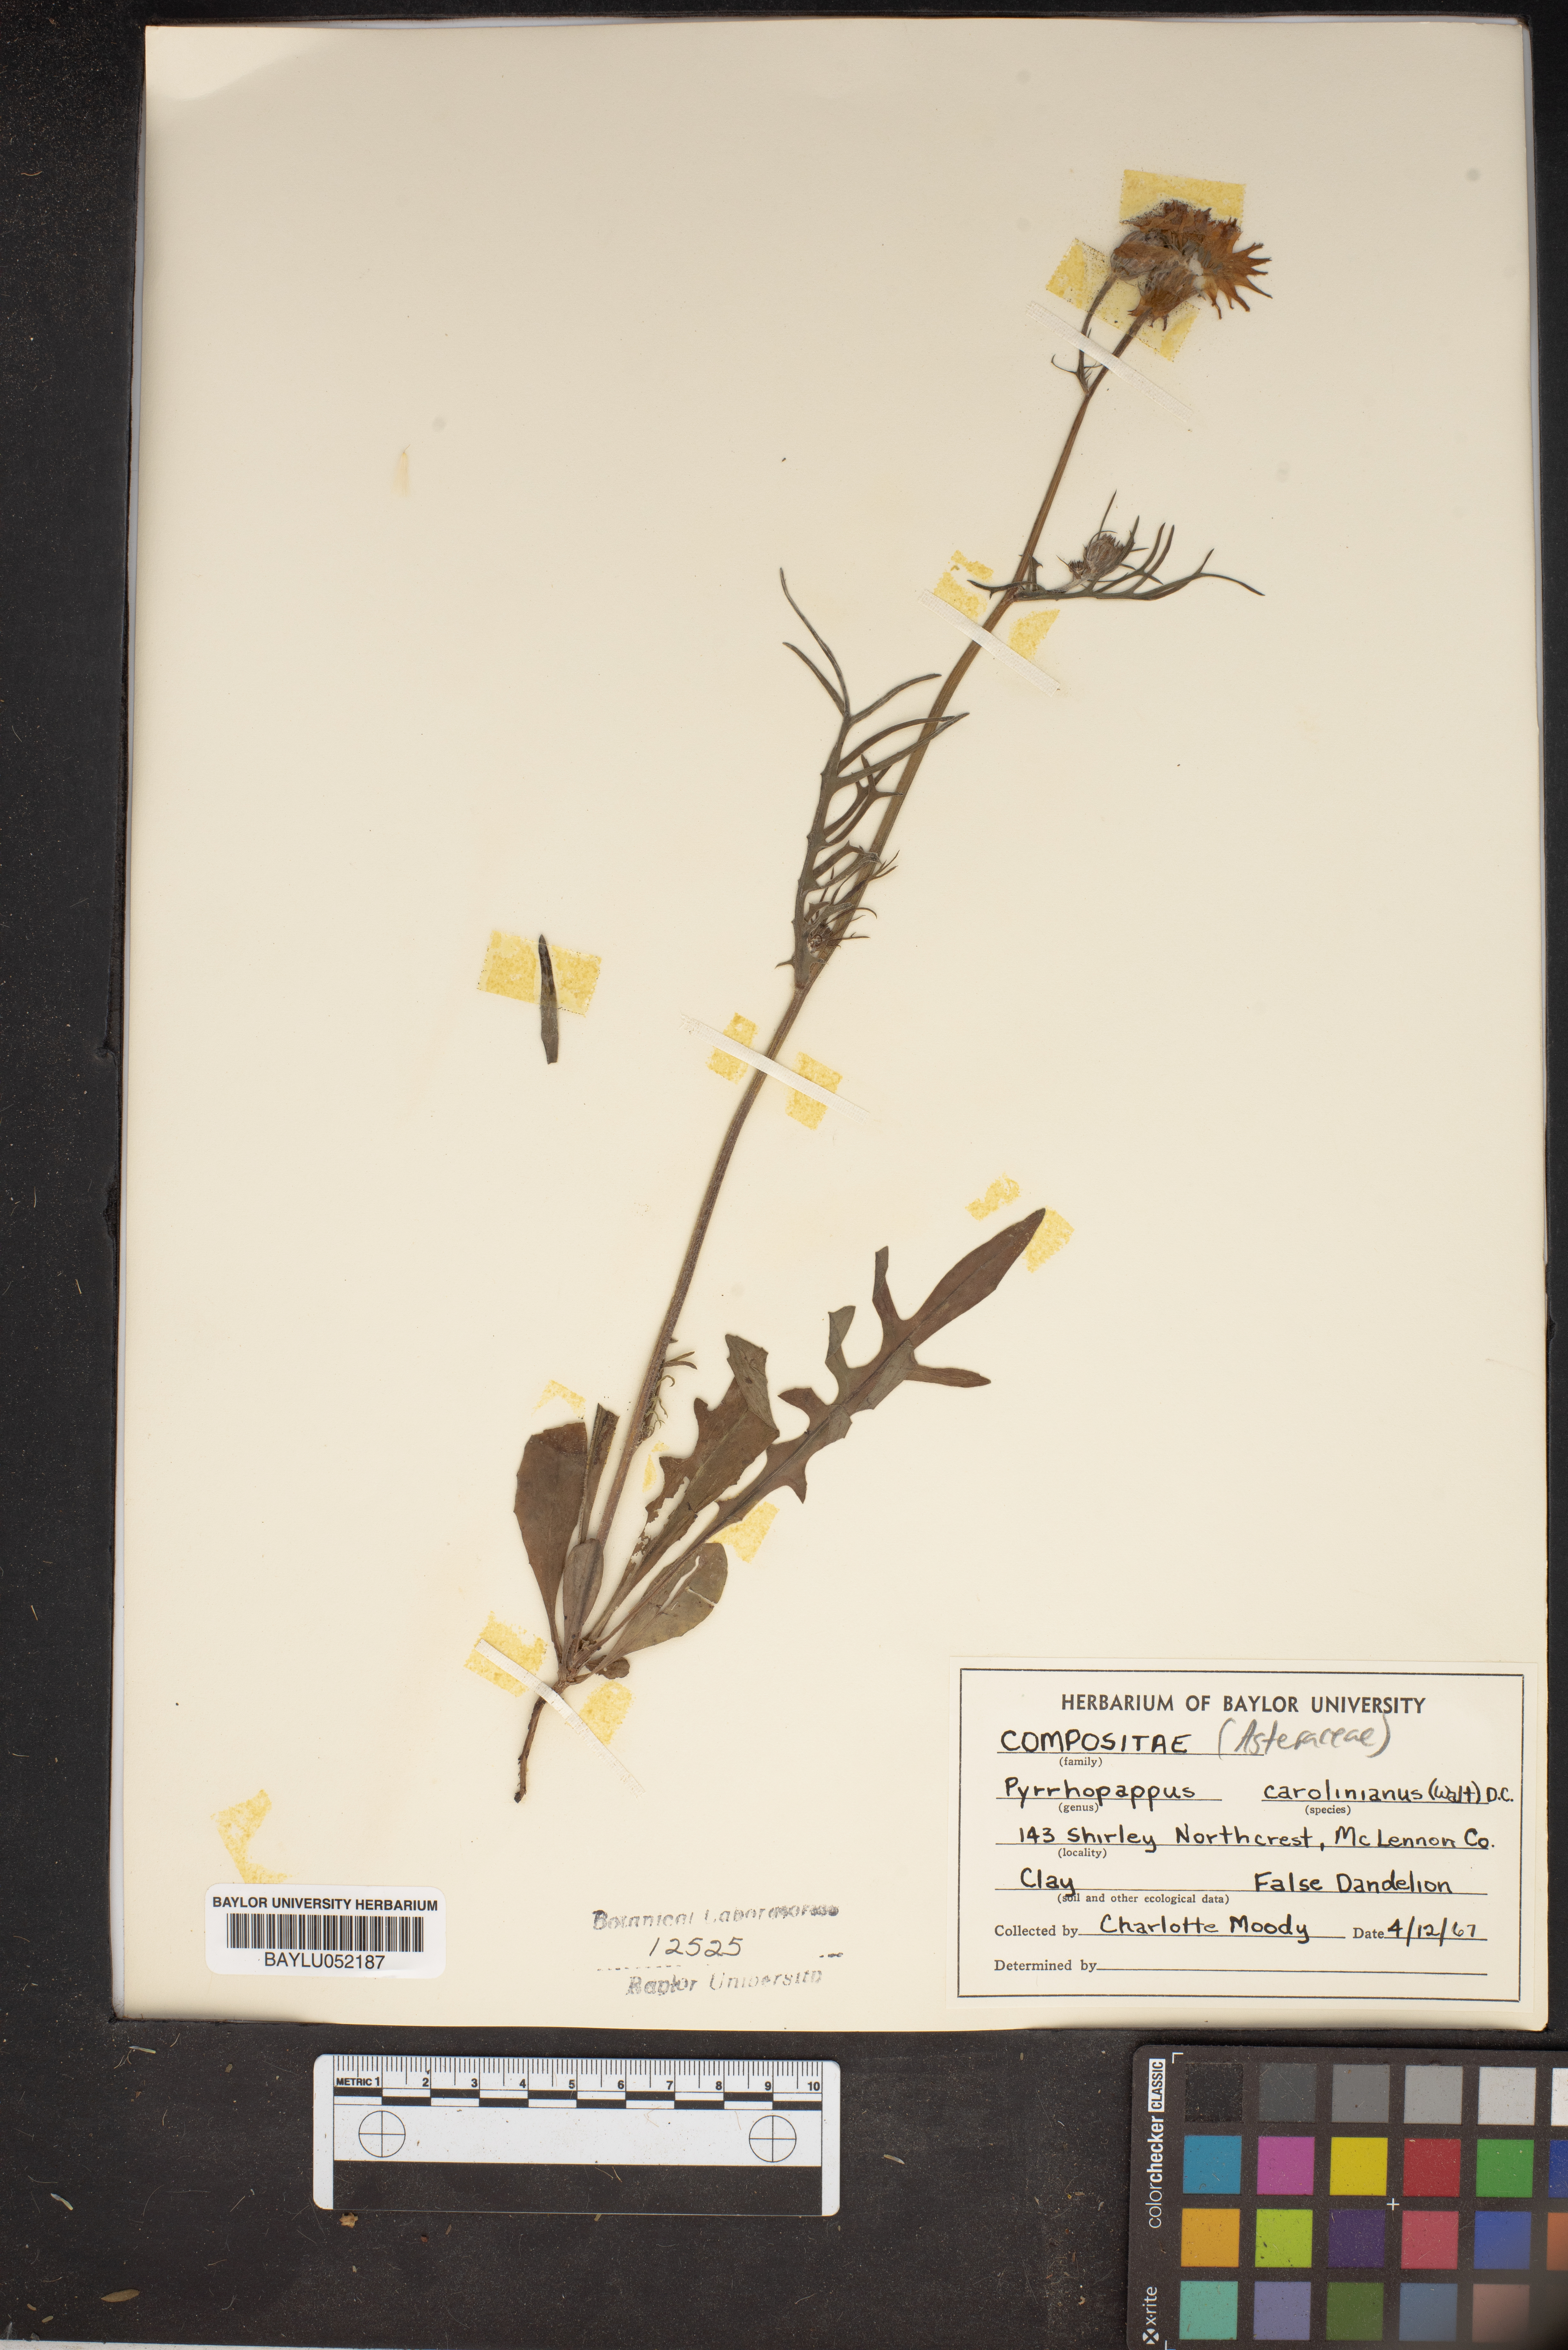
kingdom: Plantae
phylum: Tracheophyta
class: Magnoliopsida
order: Asterales
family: Asteraceae
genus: Pyrrhopappus
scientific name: Pyrrhopappus carolinianus
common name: Carolina desert-chicory
